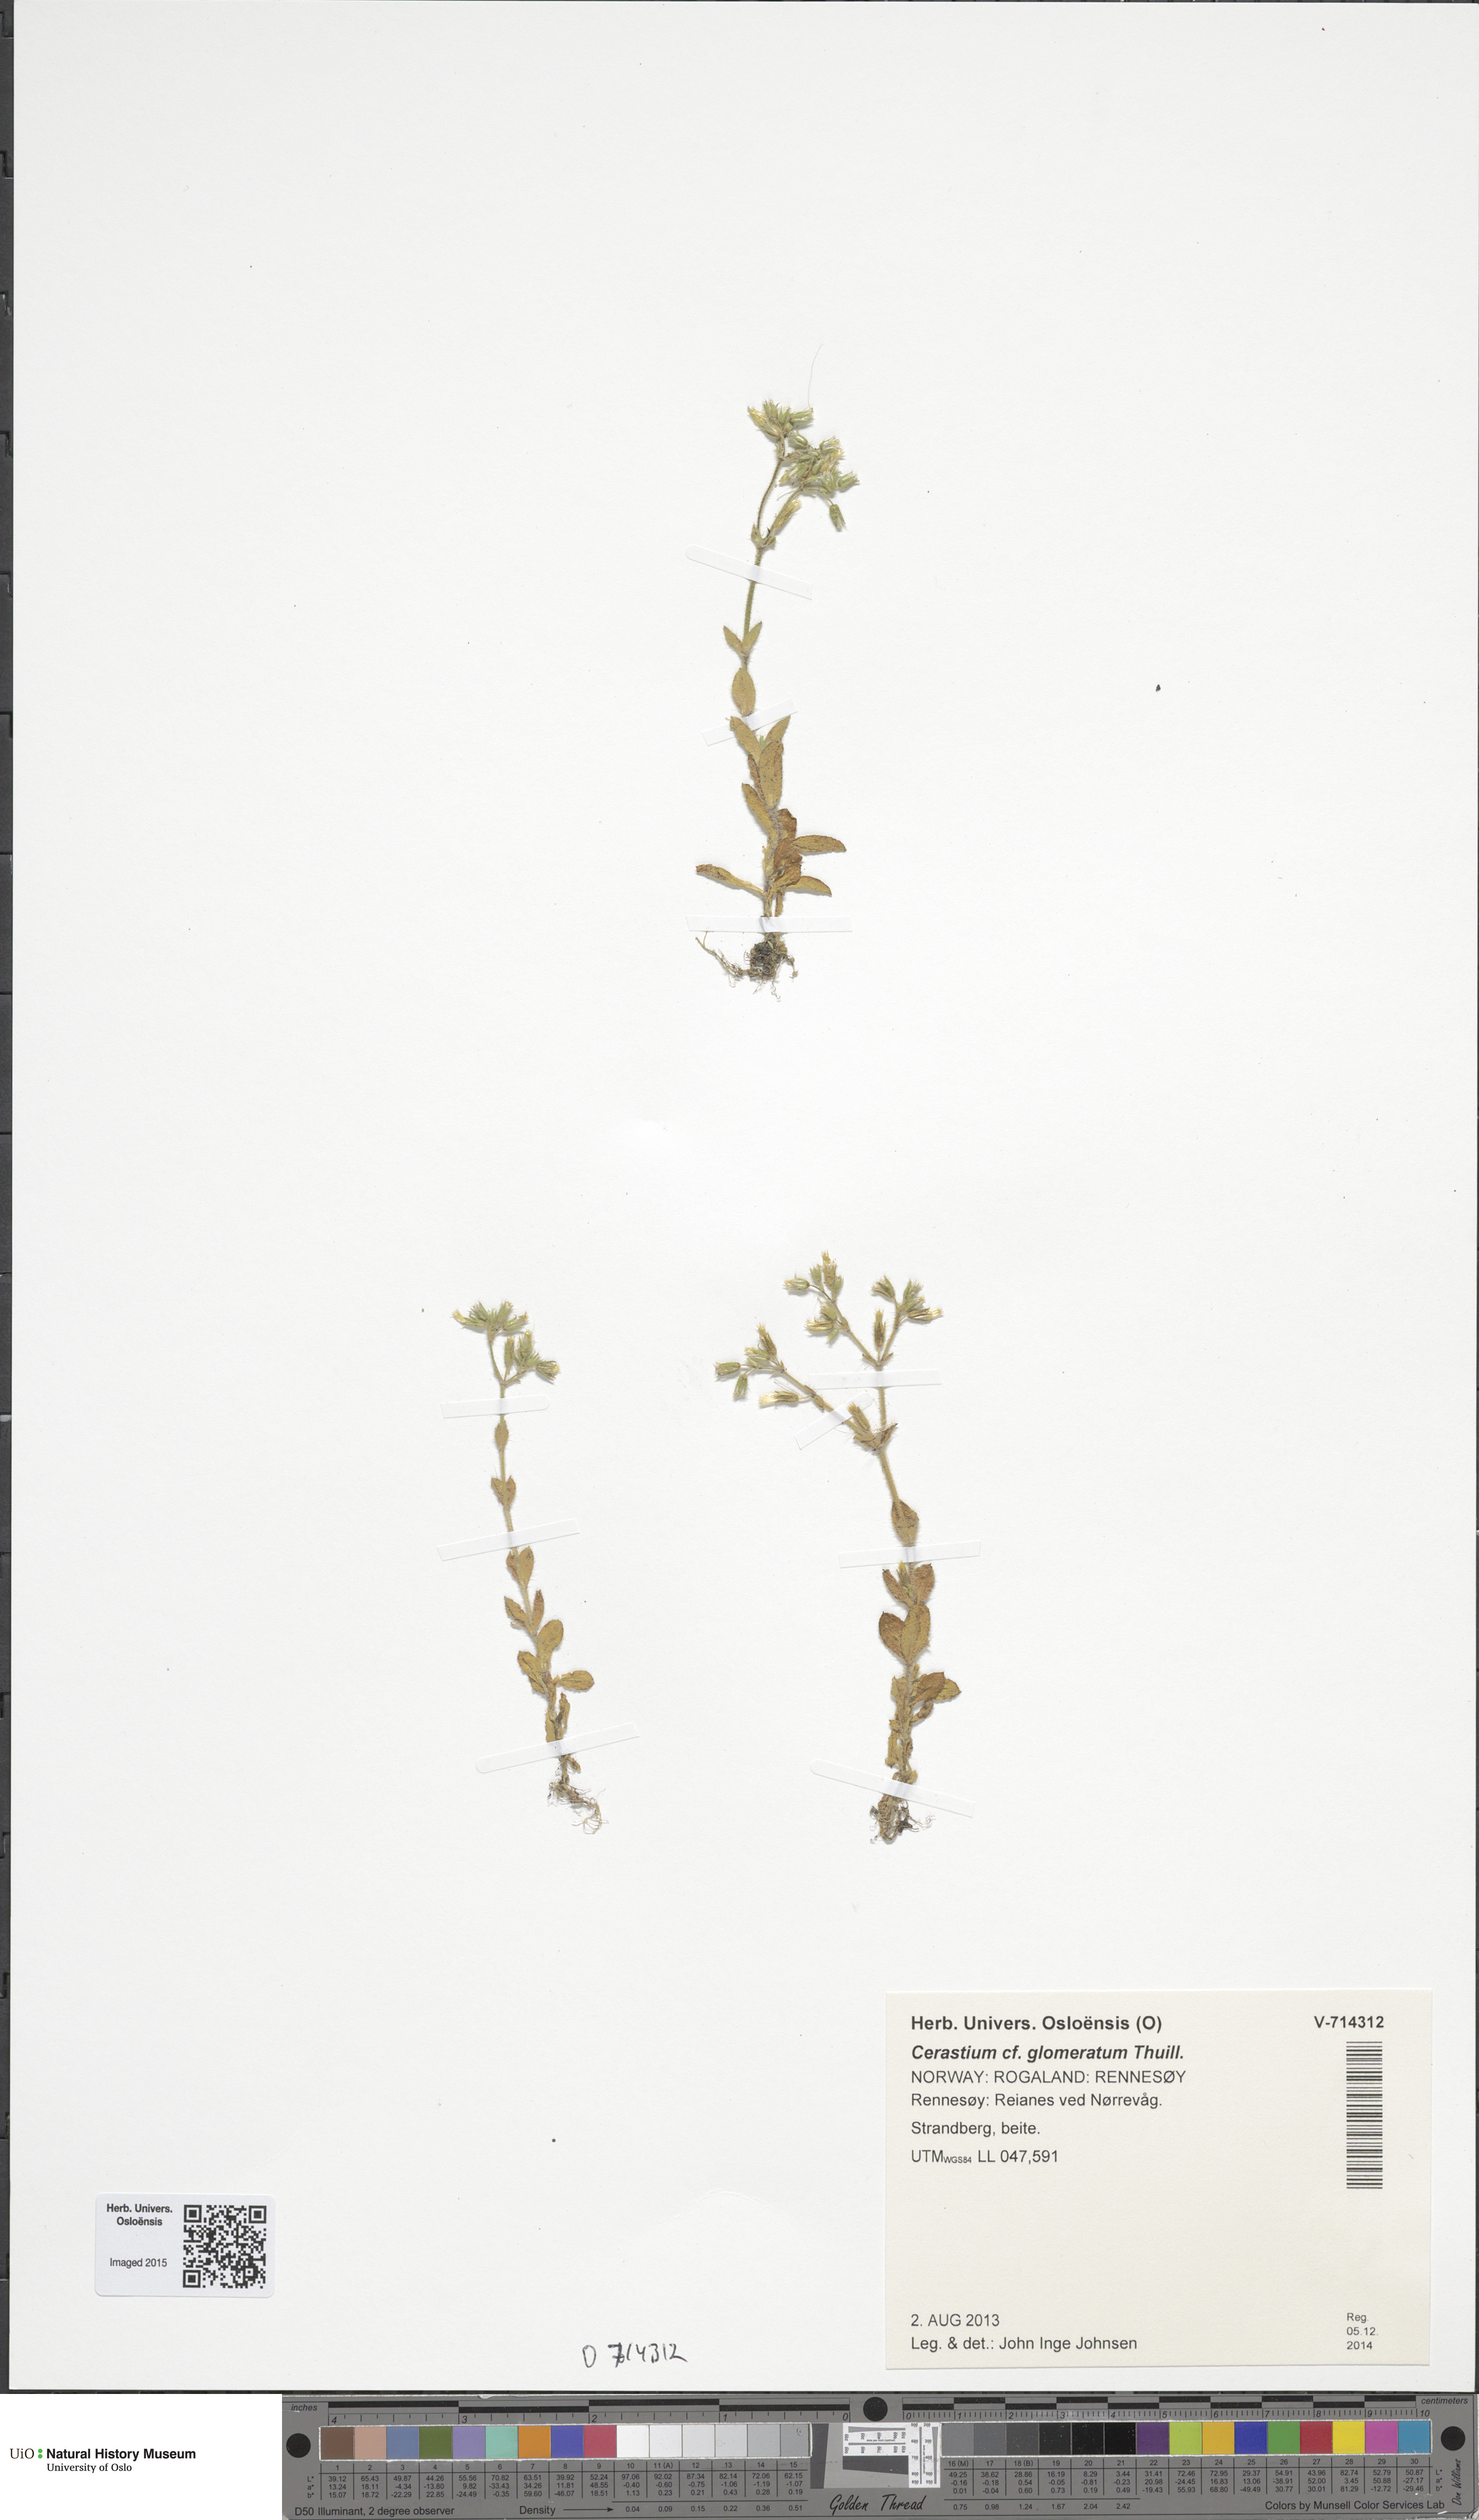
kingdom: Plantae
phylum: Tracheophyta
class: Magnoliopsida
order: Caryophyllales
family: Caryophyllaceae
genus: Cerastium
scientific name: Cerastium glomeratum
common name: Sticky chickweed
